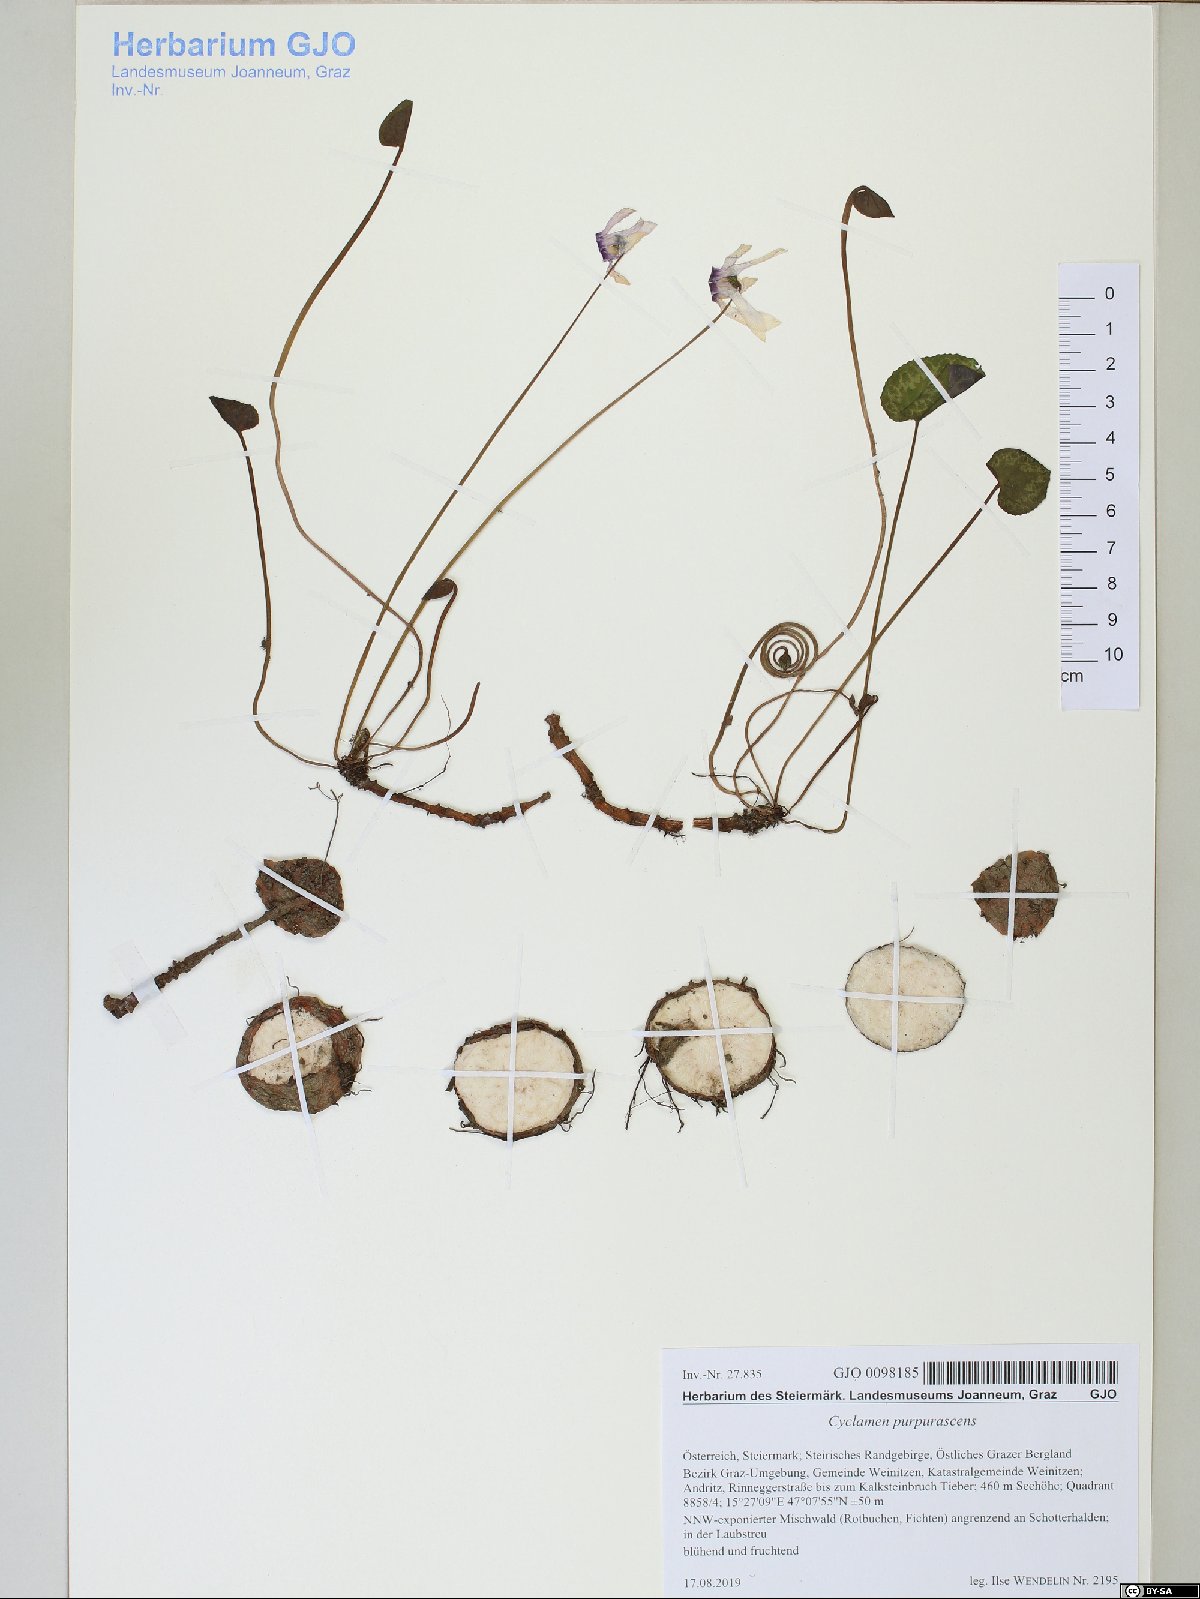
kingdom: Plantae
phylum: Tracheophyta
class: Magnoliopsida
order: Ericales
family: Primulaceae
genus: Cyclamen
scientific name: Cyclamen purpurascens
